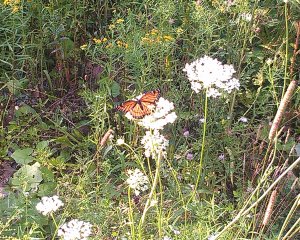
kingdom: Animalia
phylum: Arthropoda
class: Insecta
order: Lepidoptera
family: Nymphalidae
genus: Limenitis
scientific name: Limenitis archippus
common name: Viceroy
